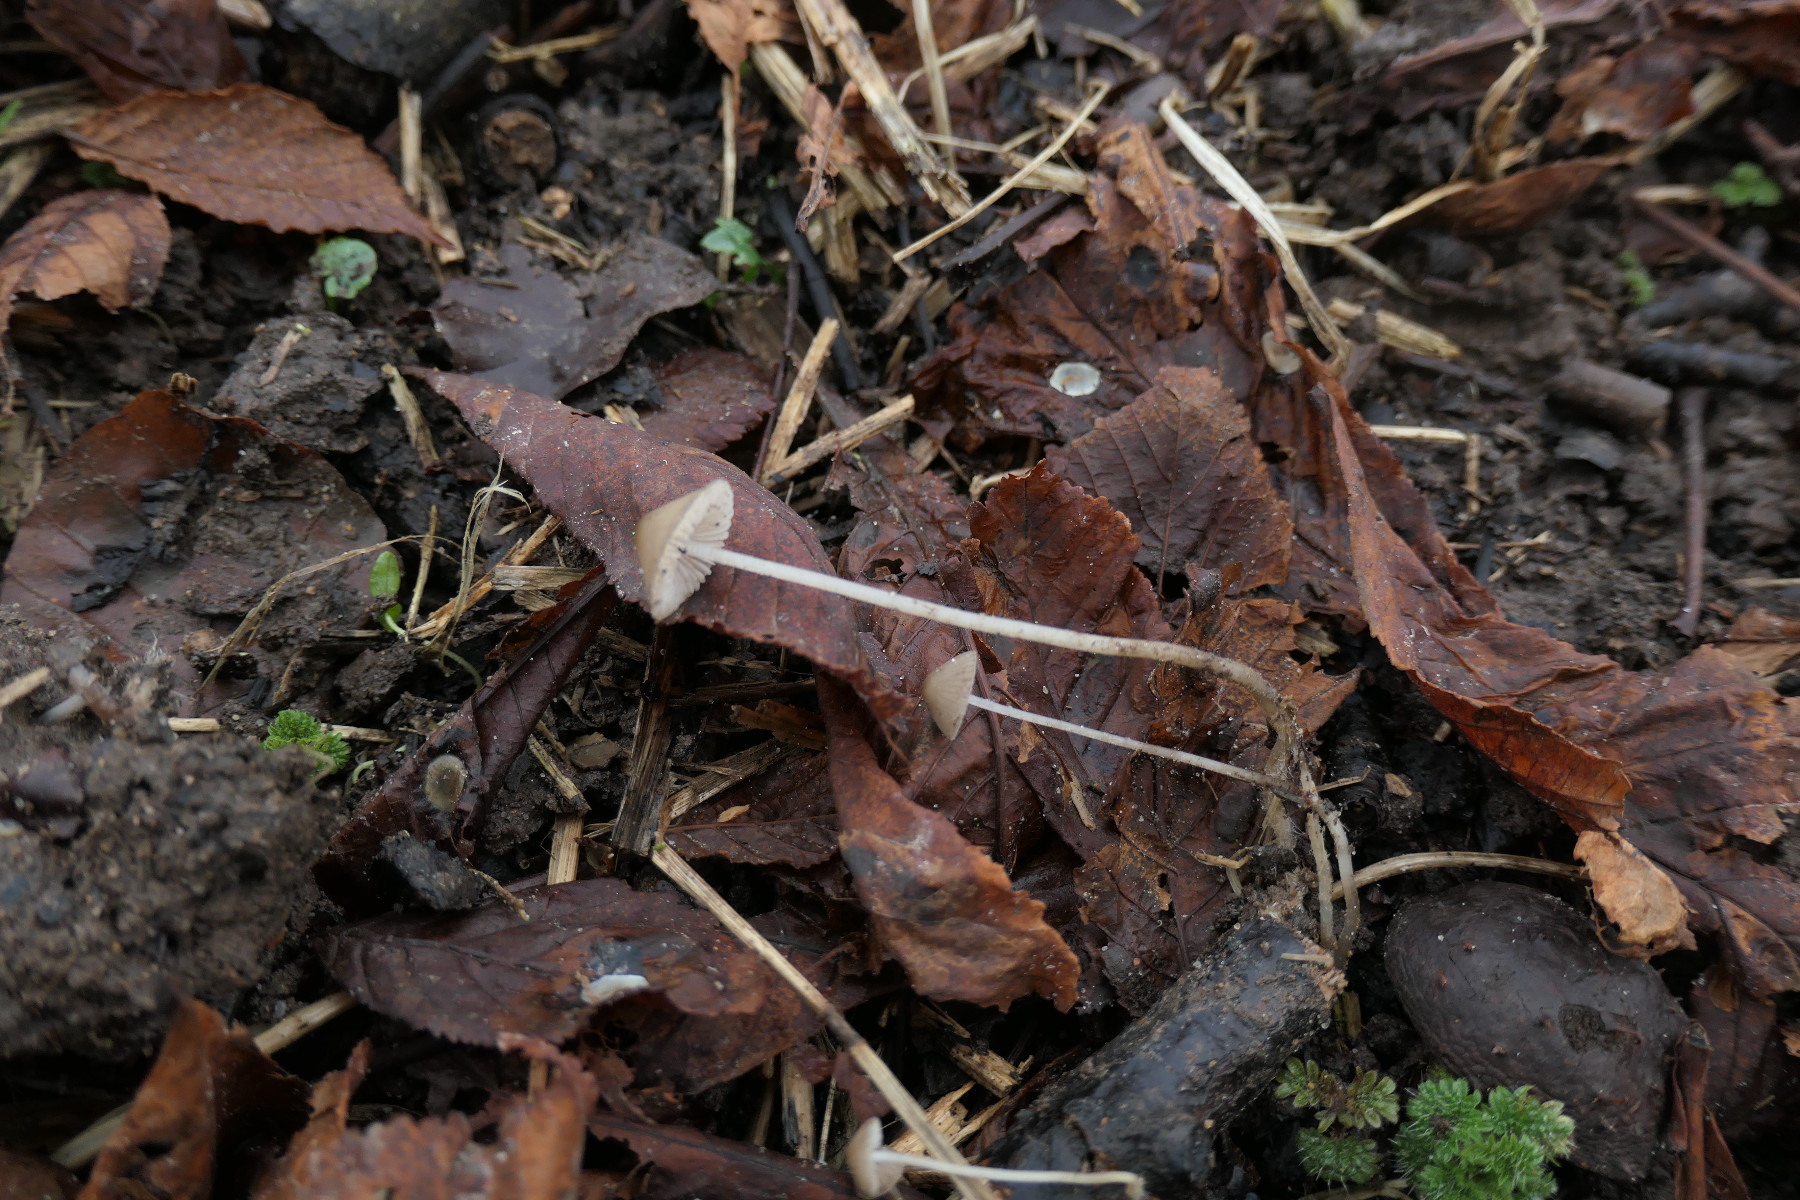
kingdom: Fungi
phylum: Basidiomycota
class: Agaricomycetes
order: Agaricales
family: Mycenaceae
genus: Mycena
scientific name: Mycena vitilis
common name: blankstokket huesvamp
